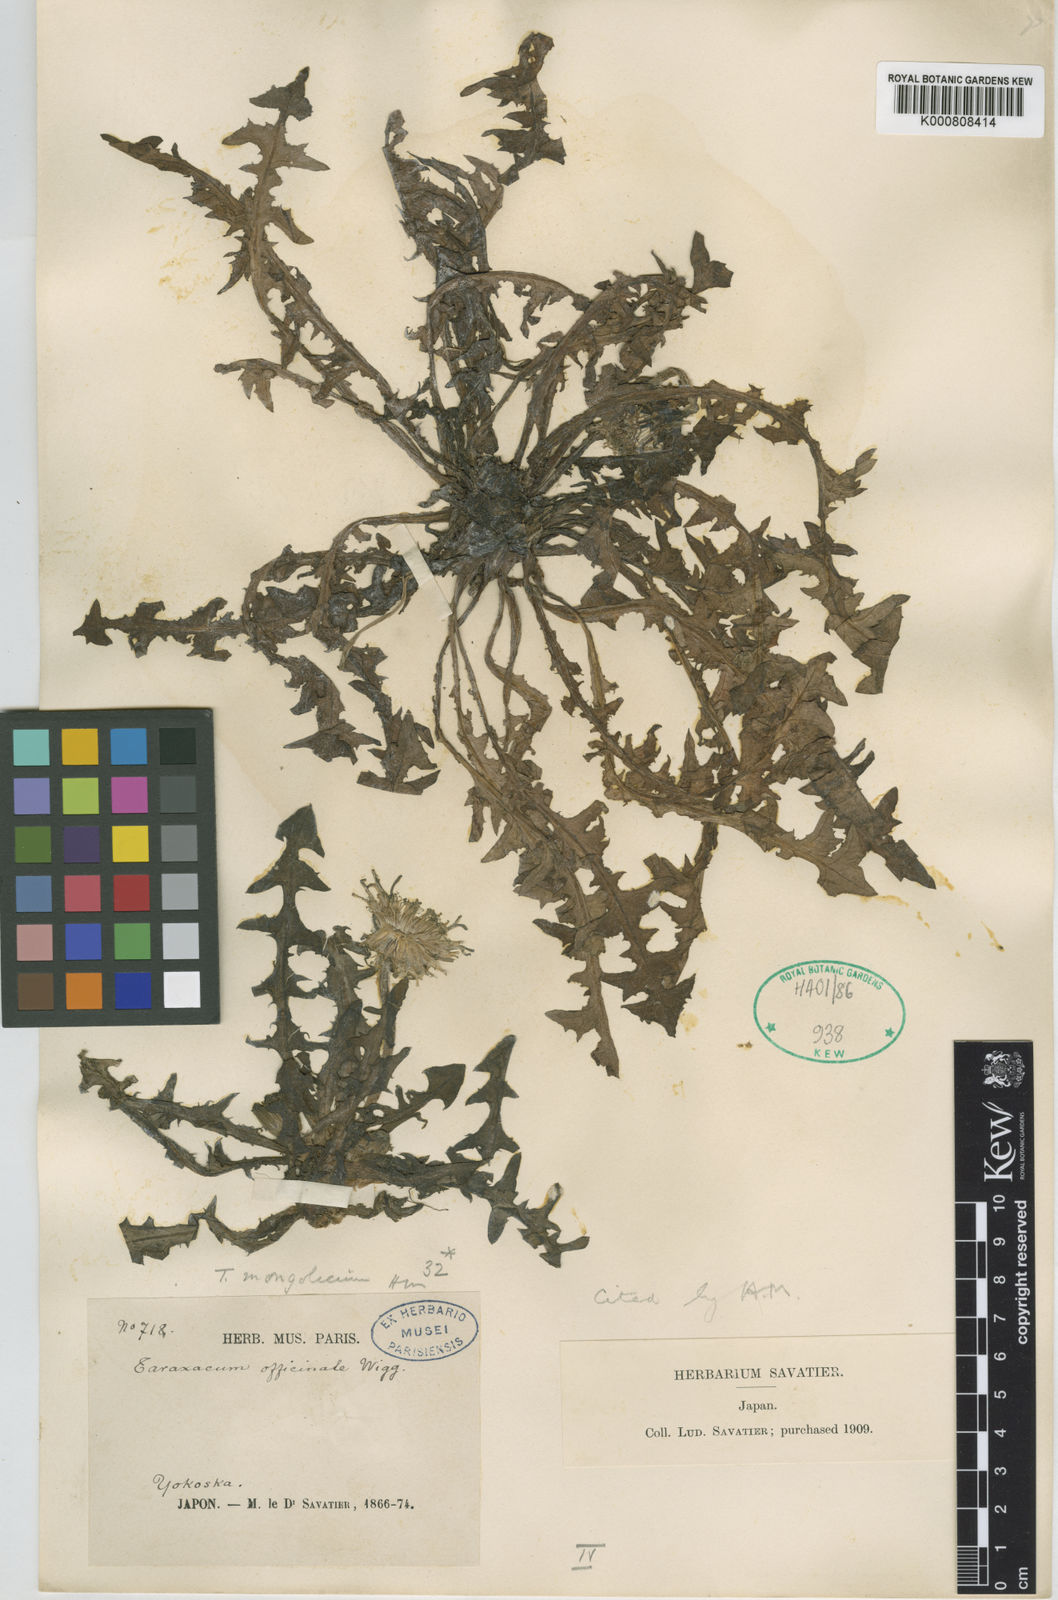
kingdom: Plantae
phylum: Tracheophyta
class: Magnoliopsida
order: Asterales
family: Asteraceae
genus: Taraxacum
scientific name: Taraxacum
